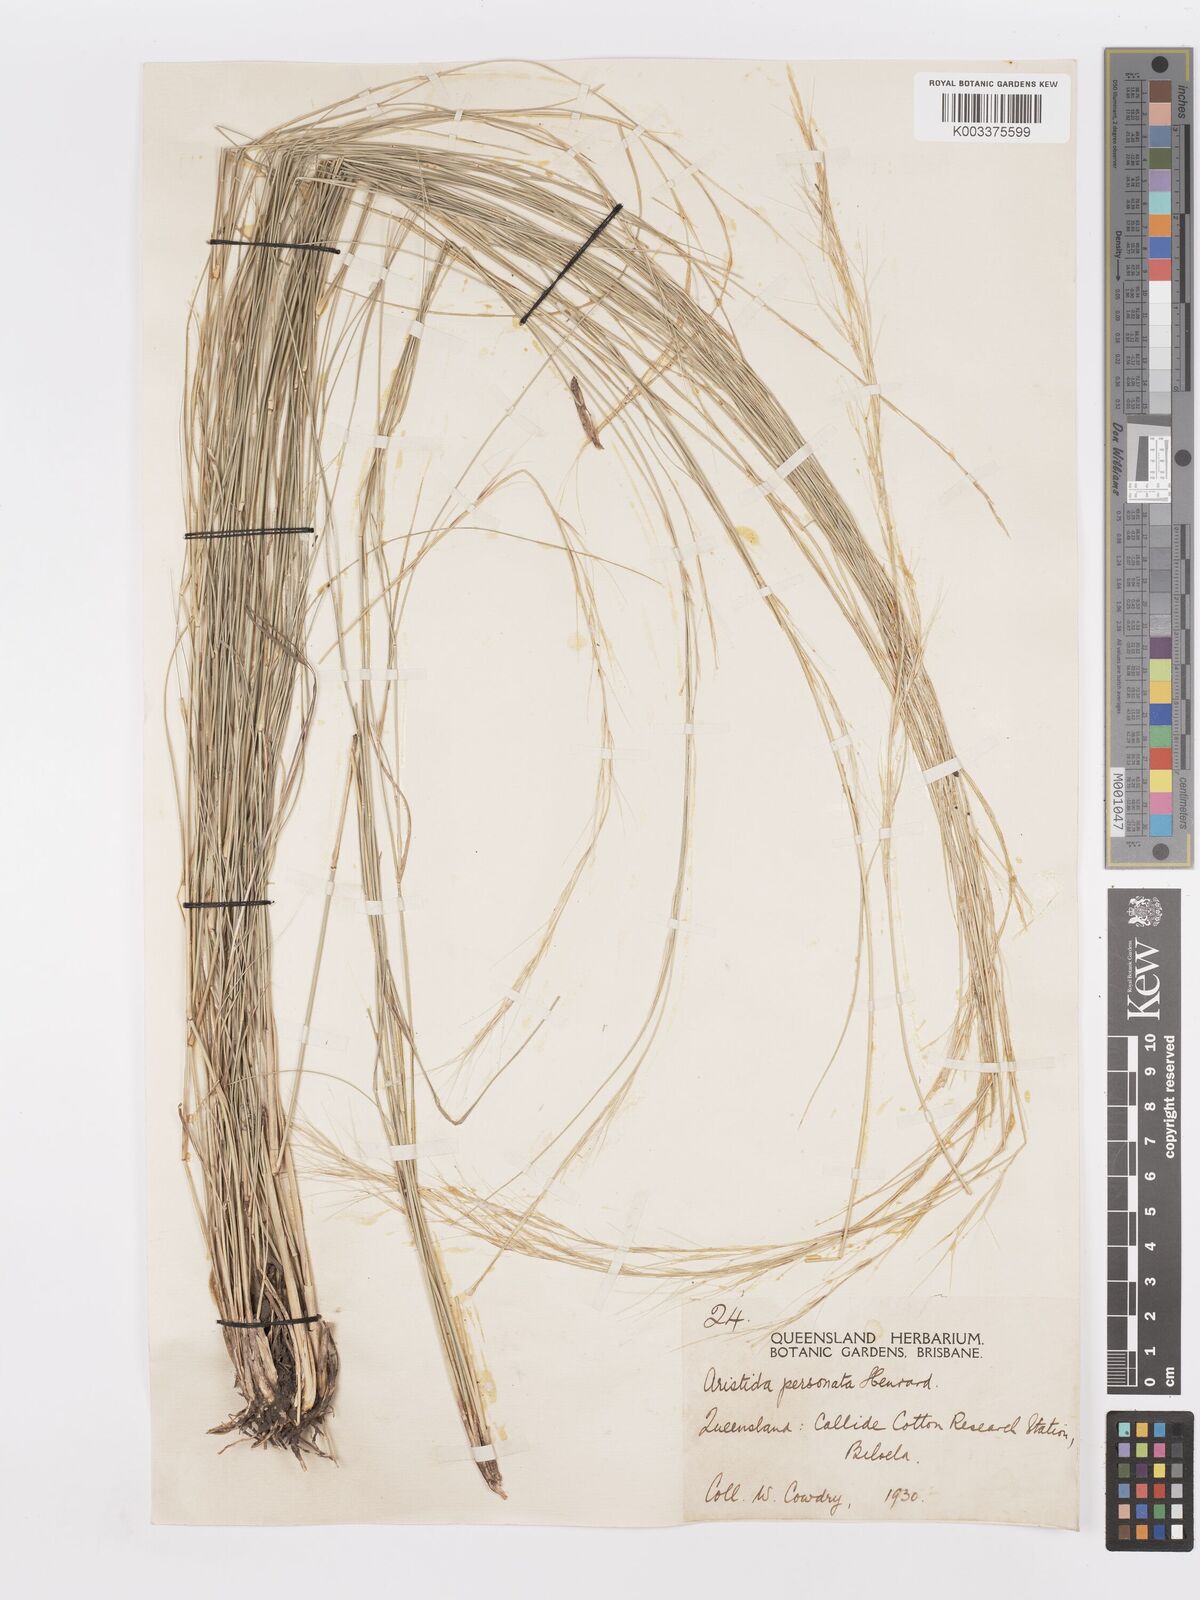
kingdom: Plantae
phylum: Tracheophyta
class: Liliopsida
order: Poales
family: Poaceae
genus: Aristida
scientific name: Aristida personata
